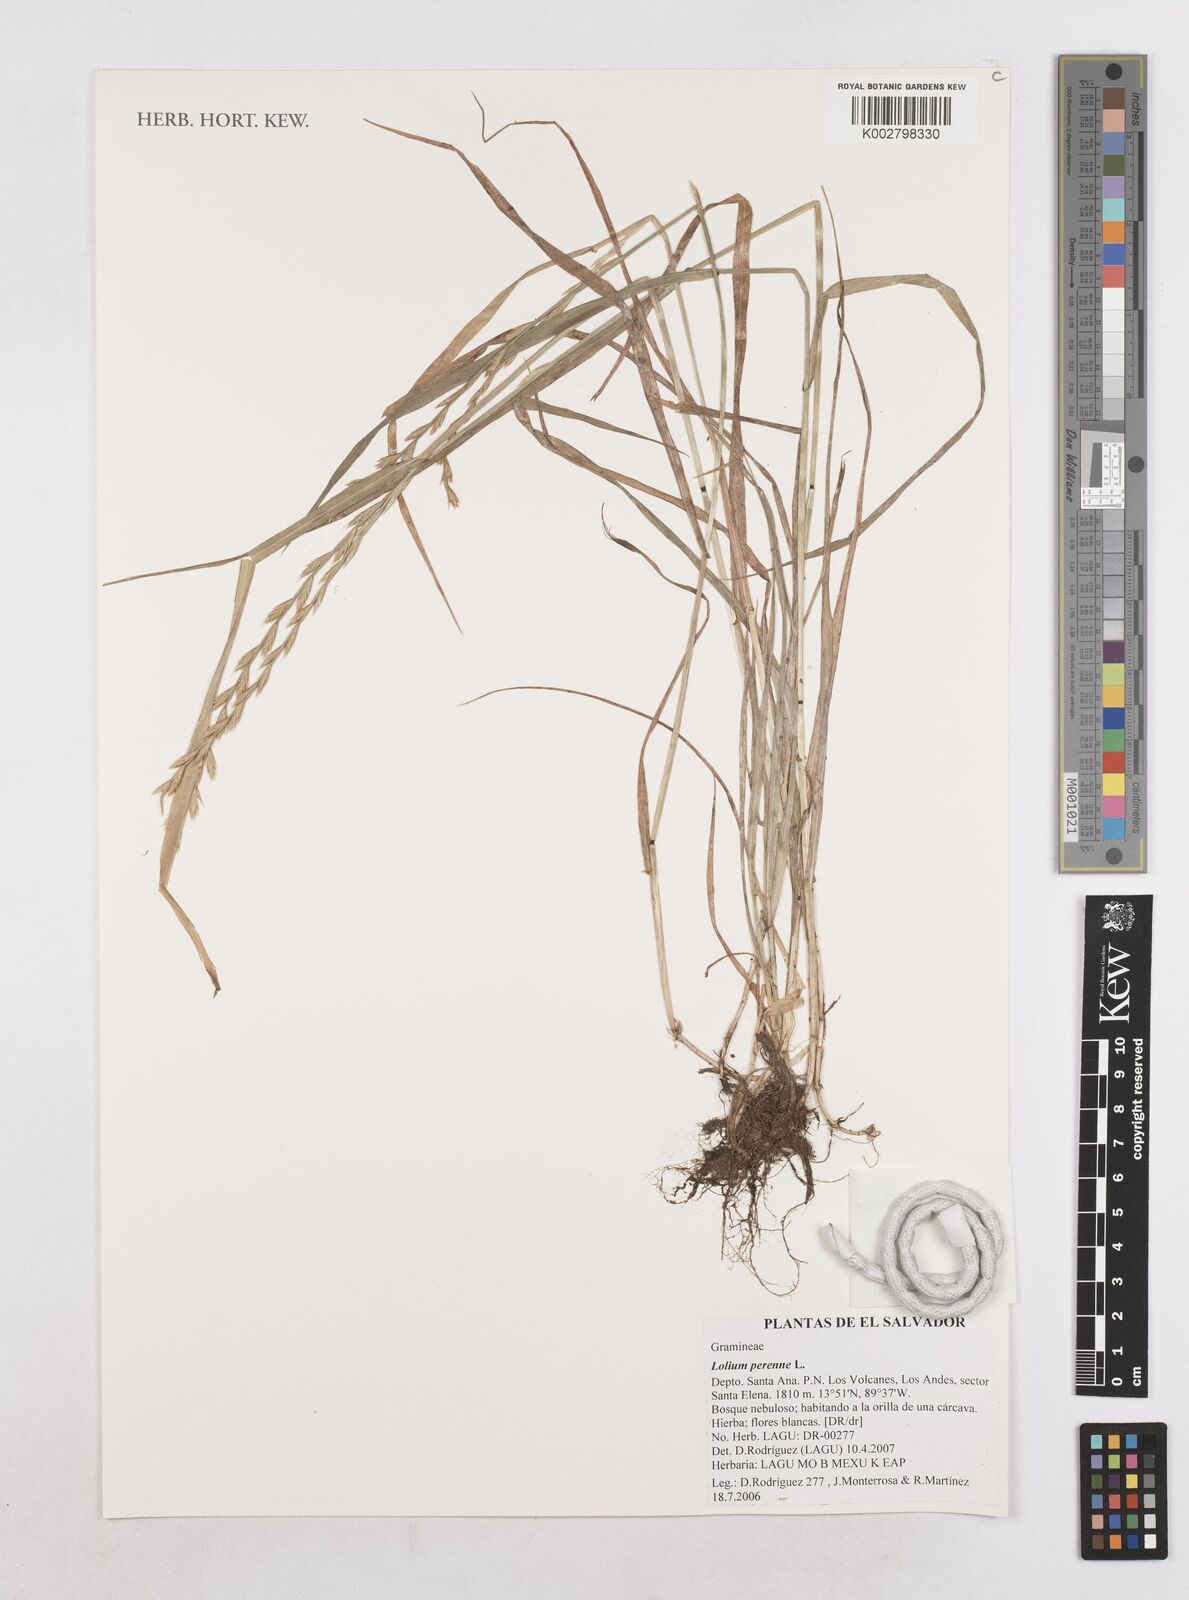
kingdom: Plantae
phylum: Tracheophyta
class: Liliopsida
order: Poales
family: Poaceae
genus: Lolium
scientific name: Lolium multiflorum
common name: Annual ryegrass
